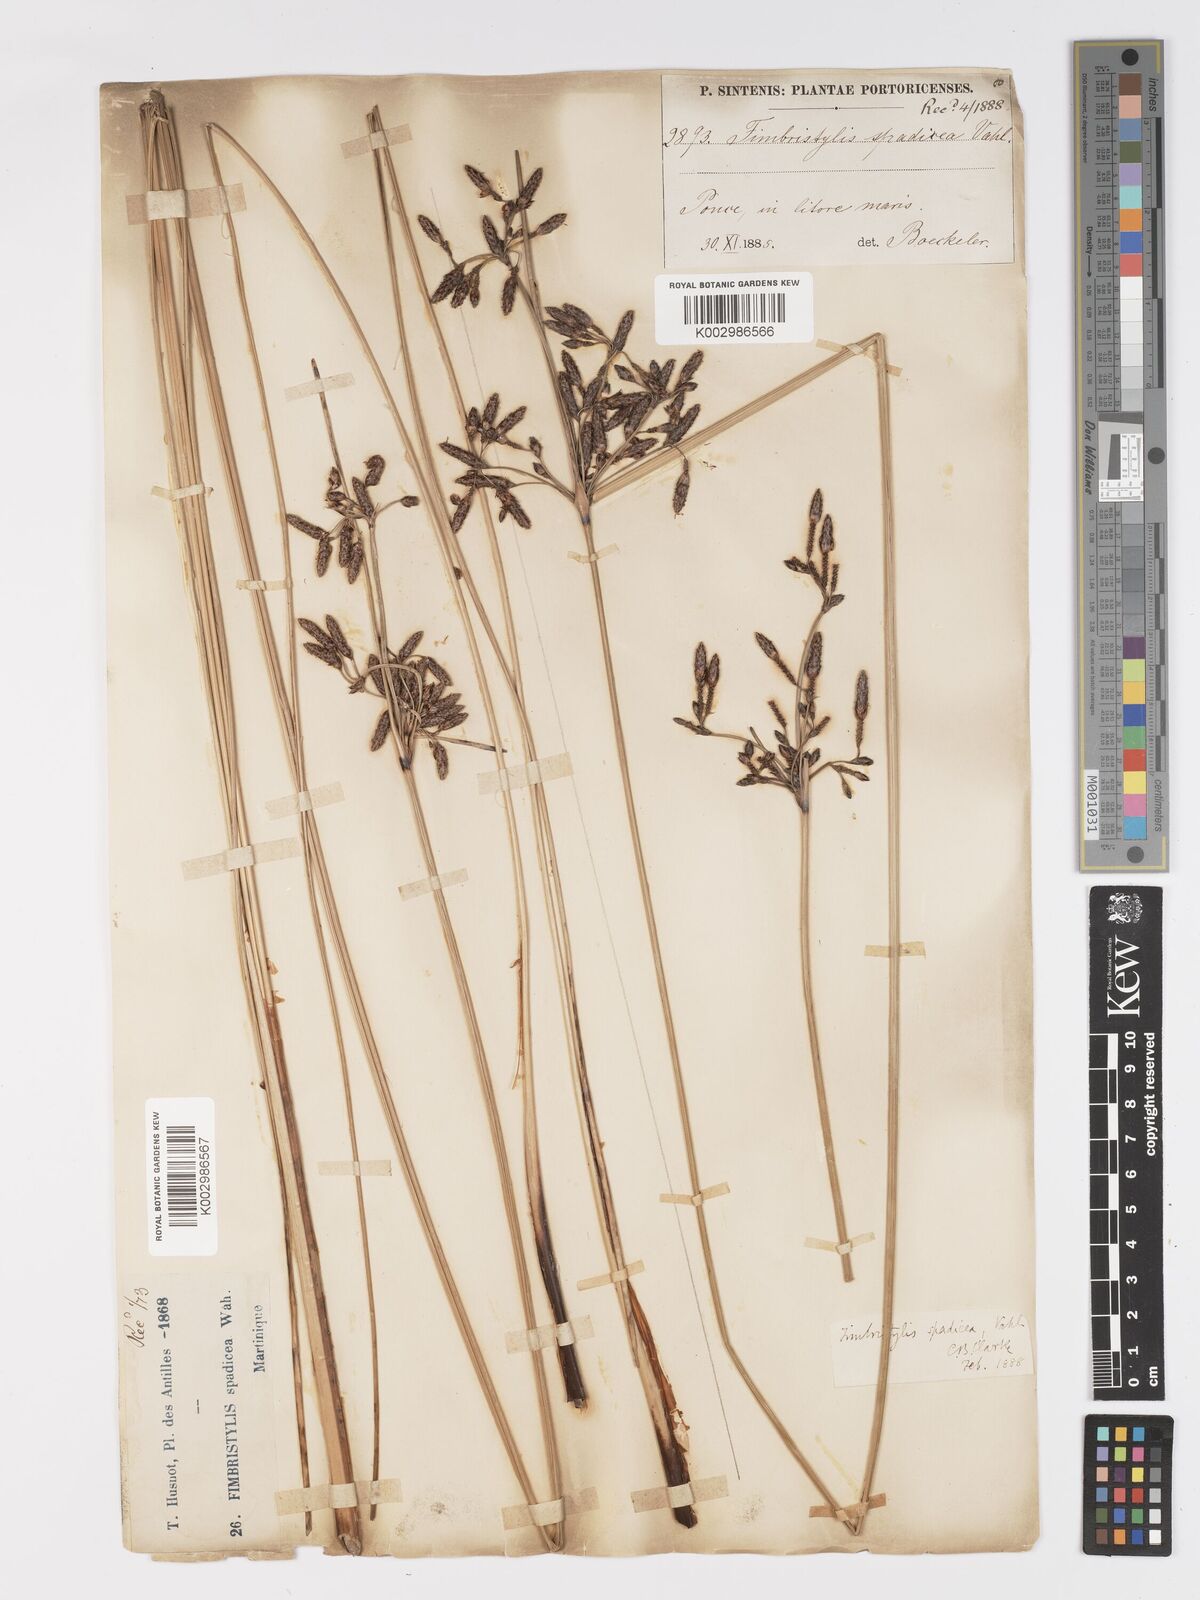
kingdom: Plantae
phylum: Tracheophyta
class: Liliopsida
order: Poales
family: Cyperaceae
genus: Fimbristylis
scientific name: Fimbristylis spadicea
